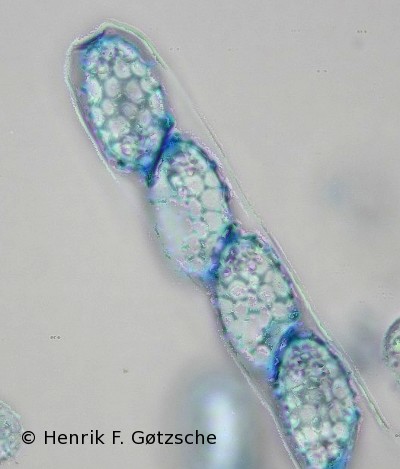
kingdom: Fungi
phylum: Ascomycota
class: Pezizomycetes
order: Pezizales
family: Pyronemataceae
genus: Melastiza
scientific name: Melastiza cornubiensis
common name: mørkrandet rødbæger
